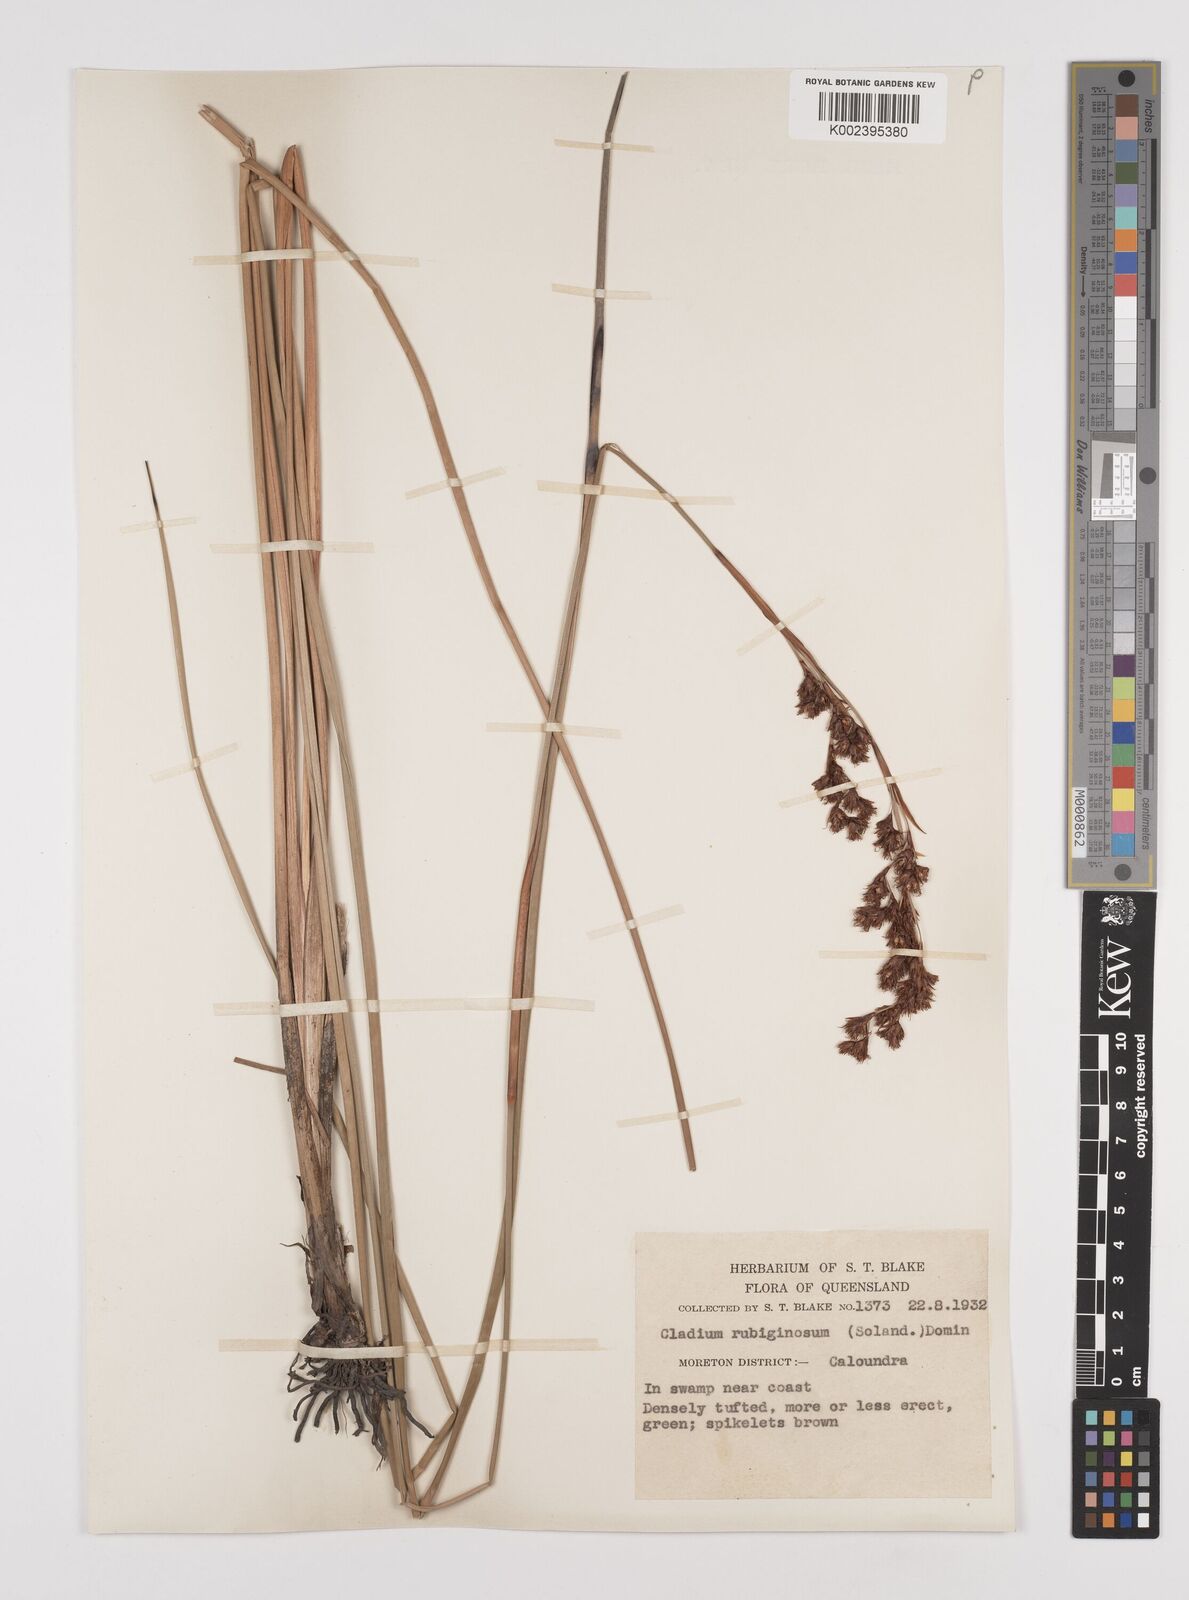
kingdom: Plantae
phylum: Tracheophyta
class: Liliopsida
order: Poales
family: Cyperaceae
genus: Machaerina
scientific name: Machaerina rubiginosa
